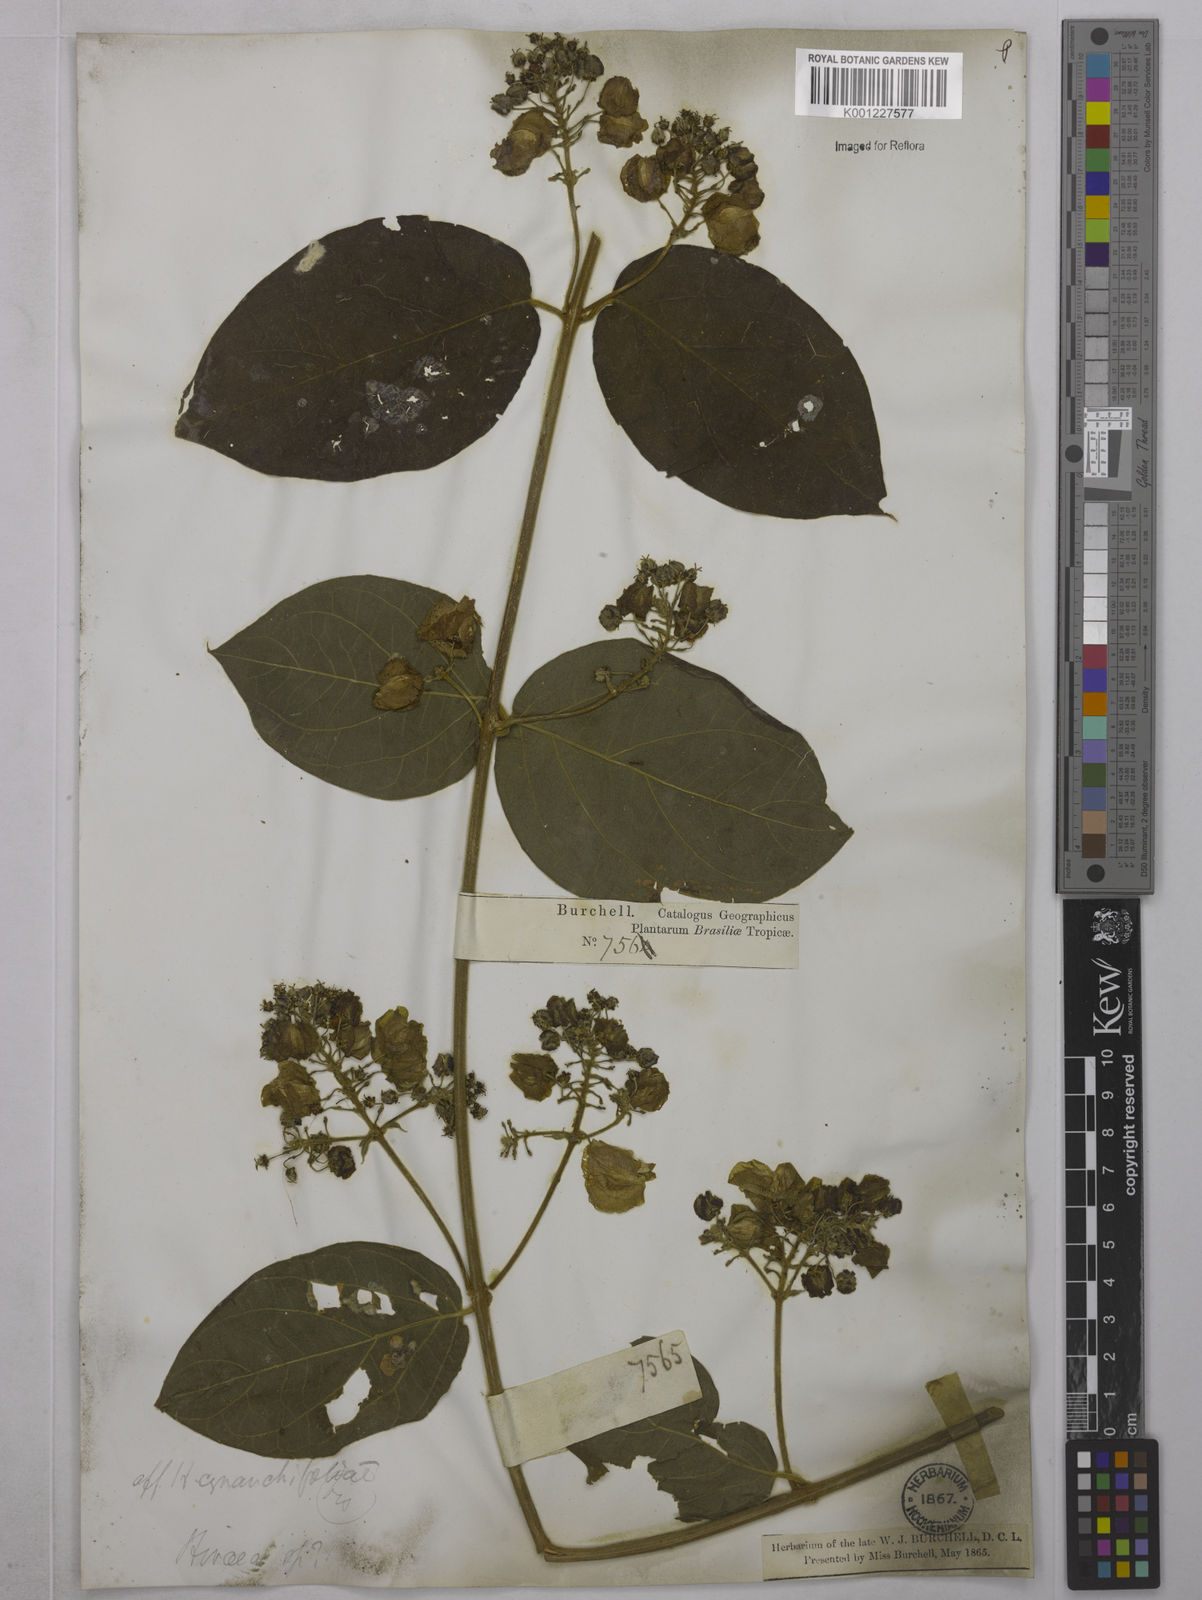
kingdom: Plantae
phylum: Tracheophyta
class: Magnoliopsida
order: Malpighiales
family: Malpighiaceae
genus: Mascagnia
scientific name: Mascagnia cordifolia
